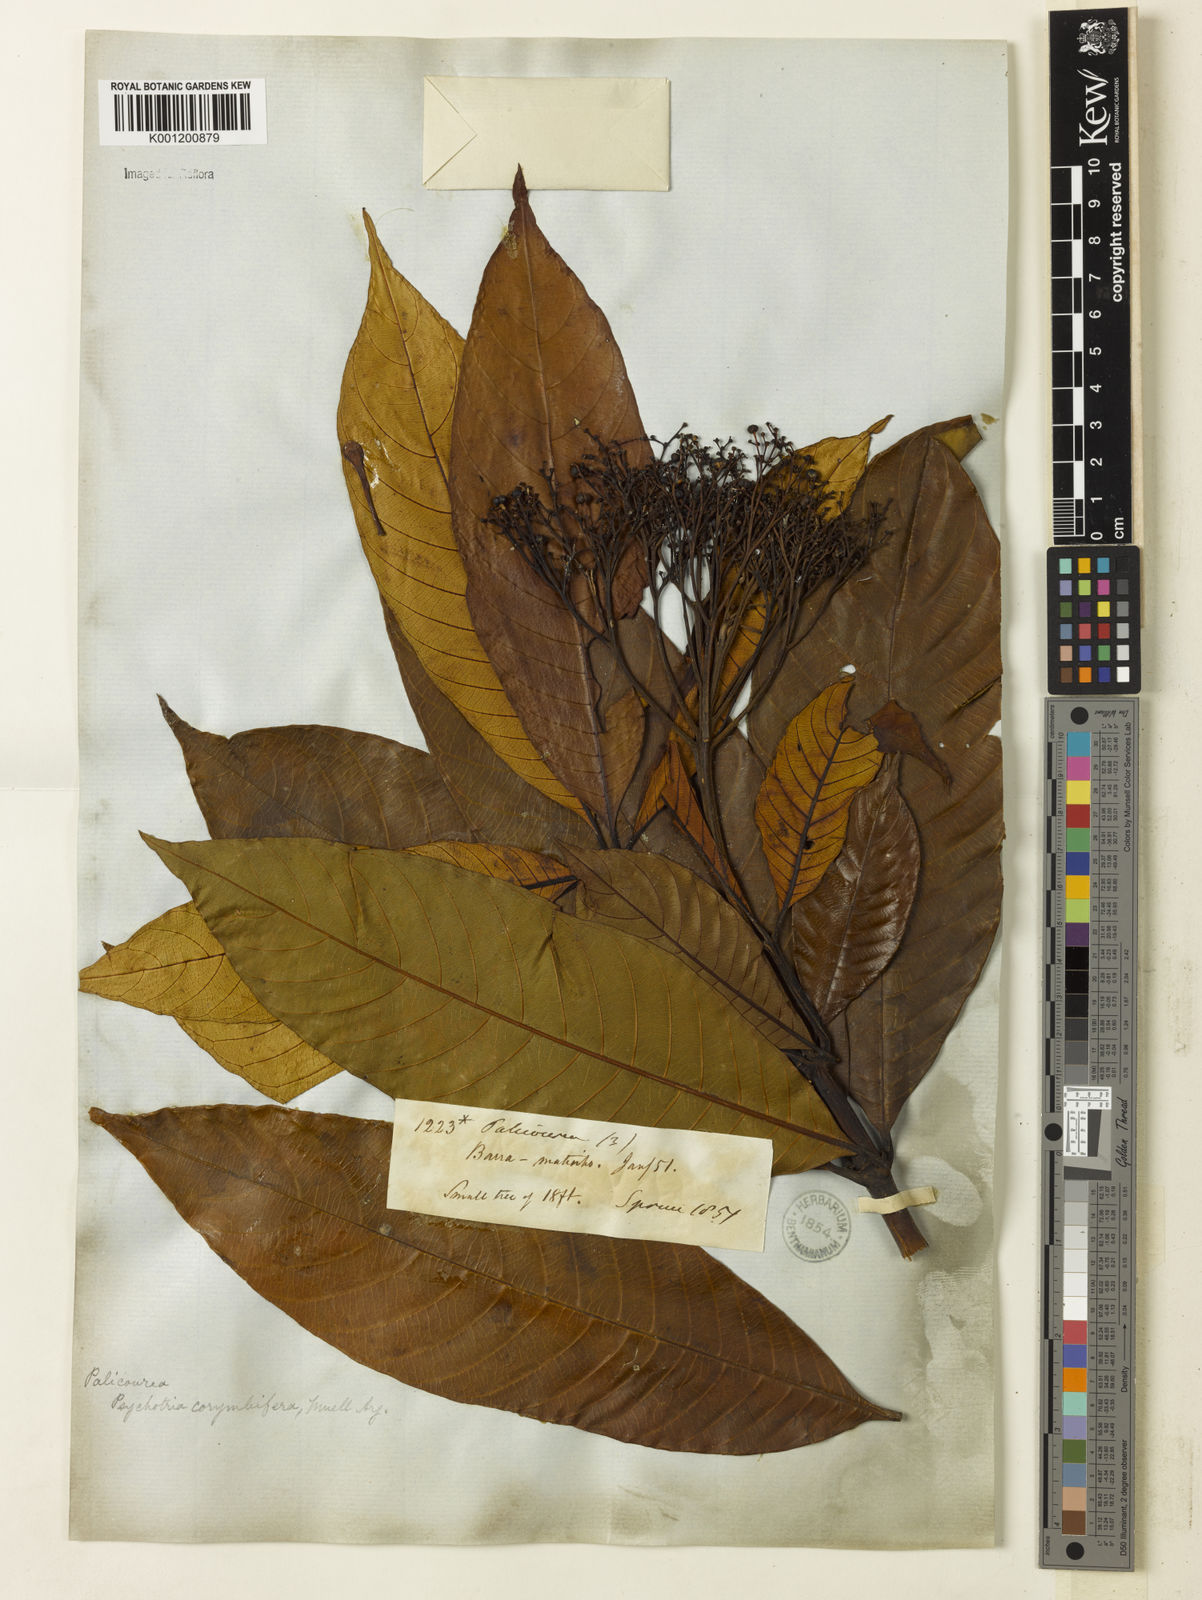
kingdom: Plantae
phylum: Tracheophyta
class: Magnoliopsida
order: Gentianales
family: Rubiaceae
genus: Palicourea
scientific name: Palicourea
